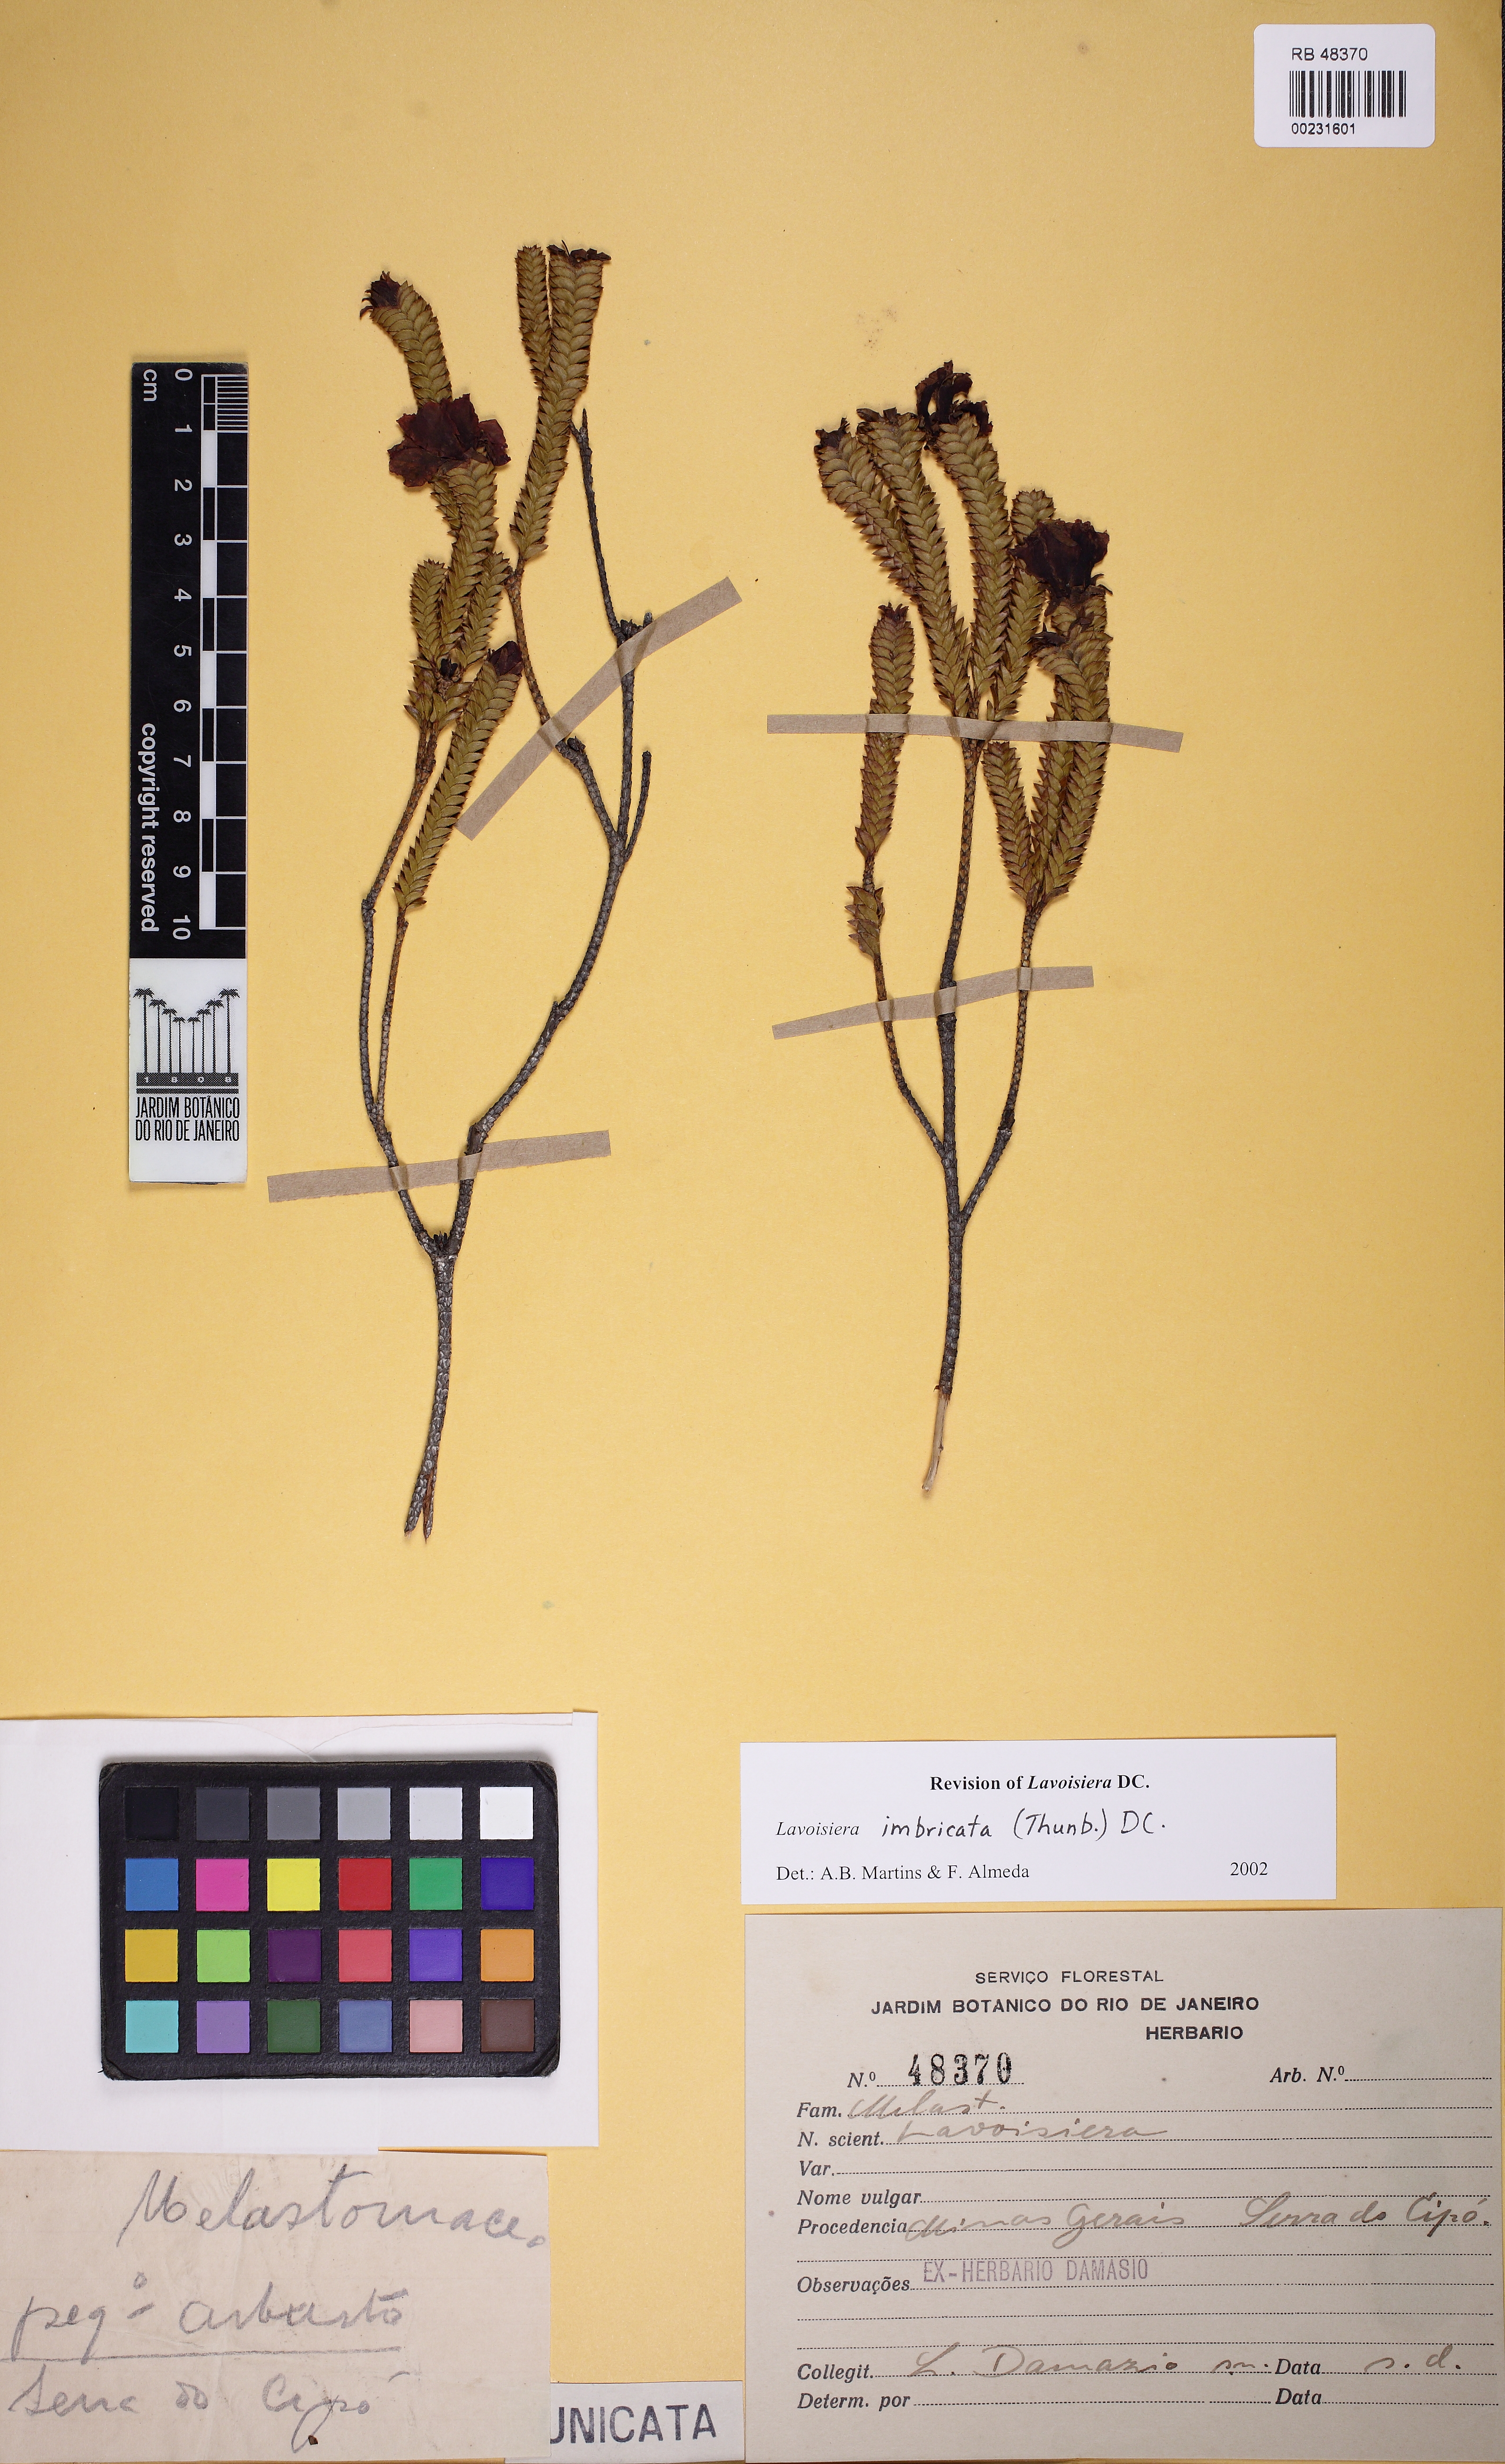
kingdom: Plantae
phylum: Tracheophyta
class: Magnoliopsida
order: Myrtales
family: Melastomataceae
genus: Microlicia
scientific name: Microlicia cataphracta
